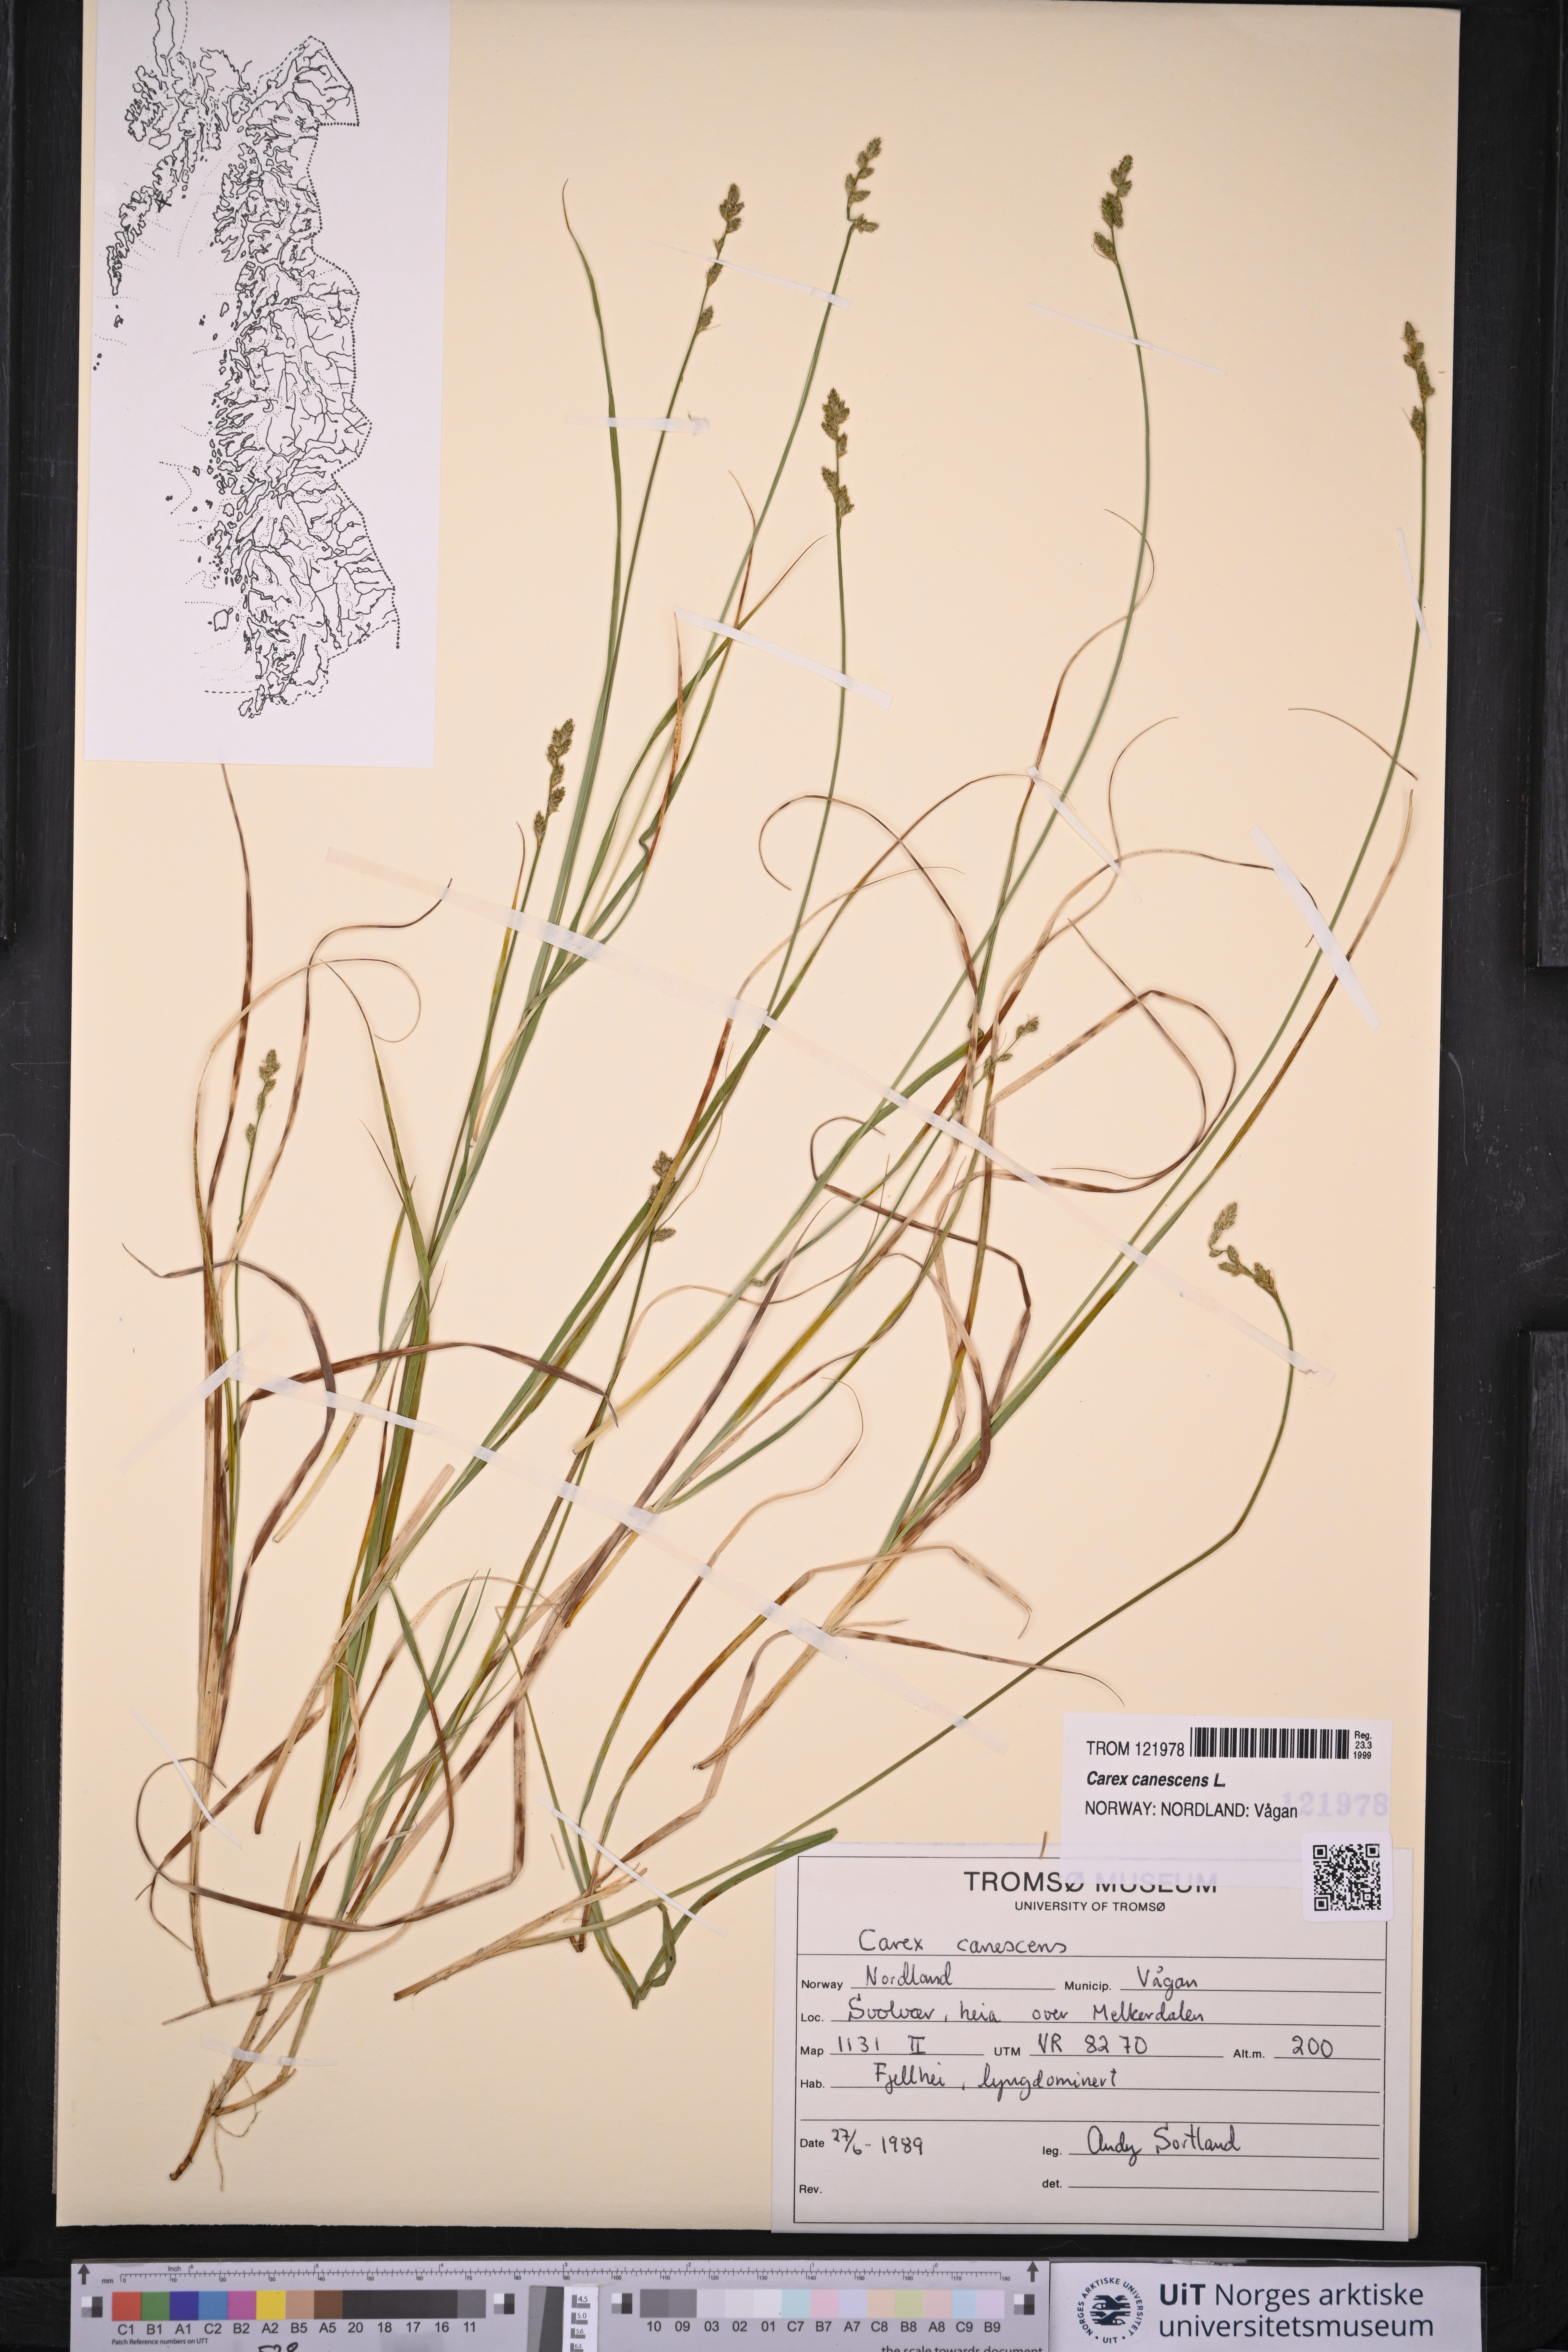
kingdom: Plantae
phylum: Tracheophyta
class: Liliopsida
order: Poales
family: Cyperaceae
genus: Carex
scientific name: Carex canescens
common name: White sedge
